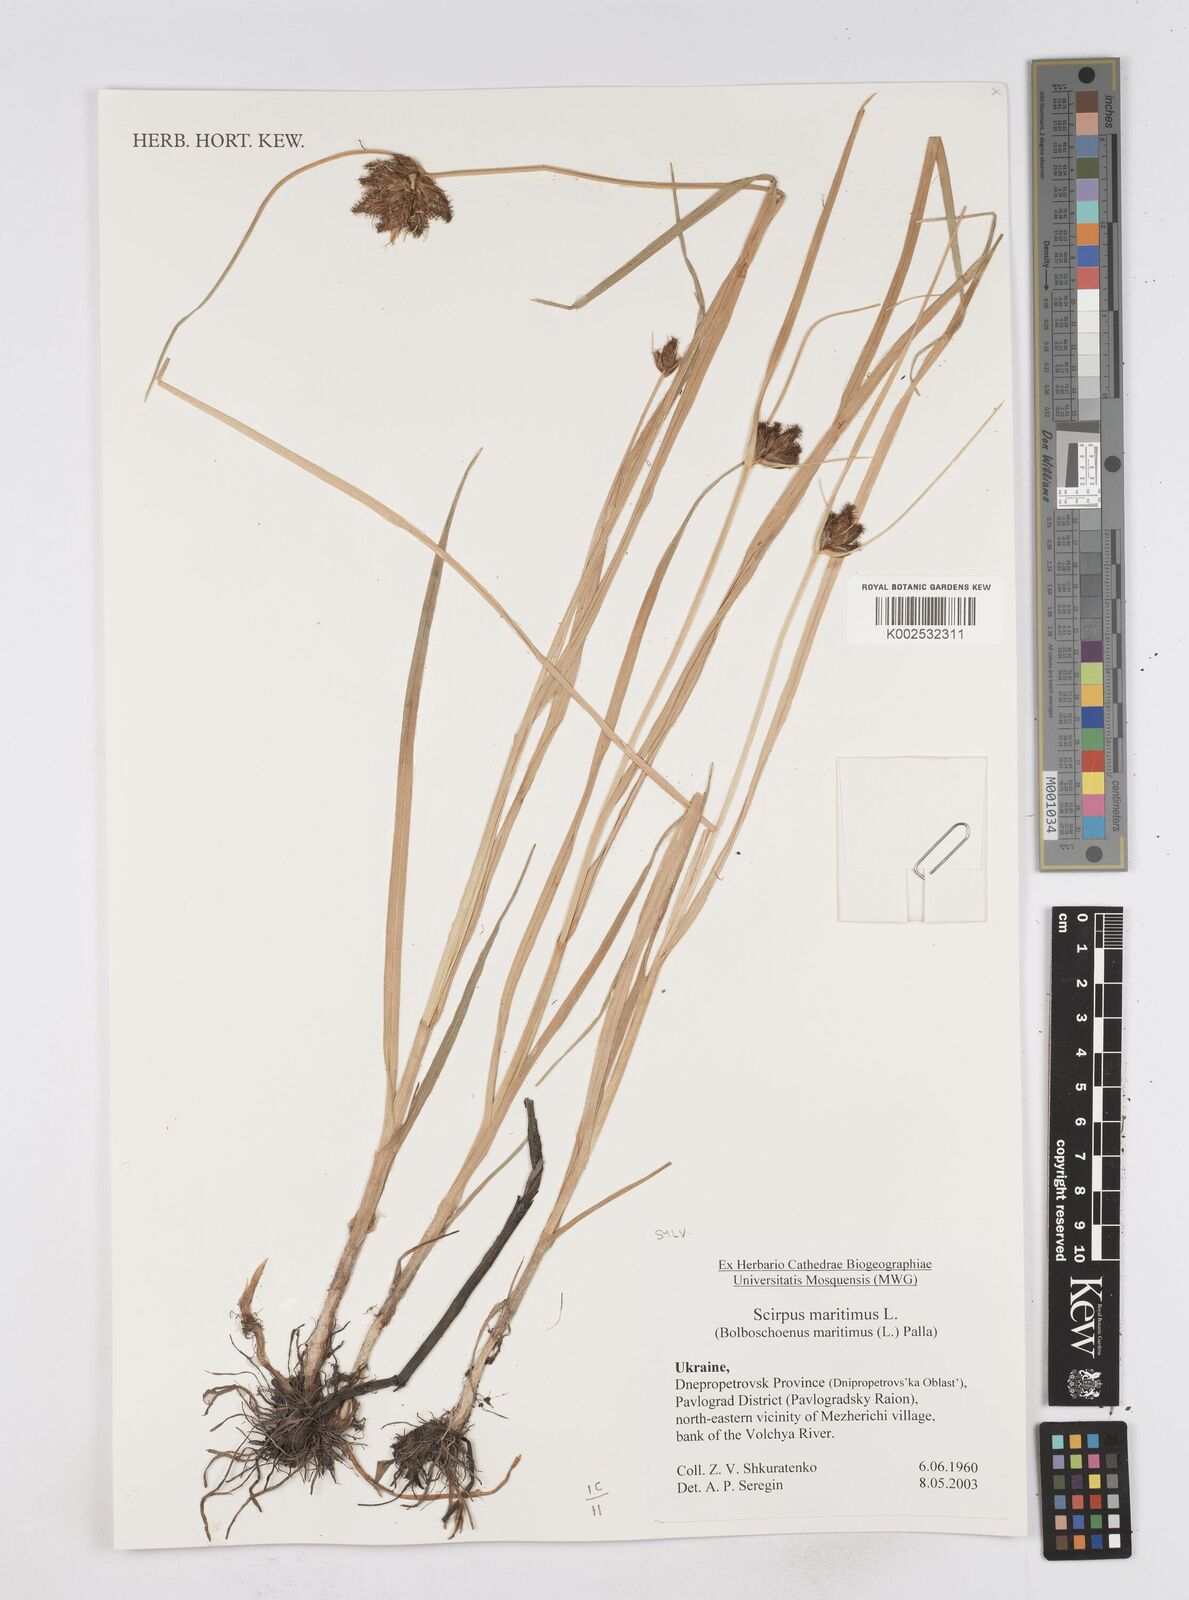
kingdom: Plantae
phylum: Tracheophyta
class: Liliopsida
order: Poales
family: Cyperaceae
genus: Bolboschoenus
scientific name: Bolboschoenus maritimus
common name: Sea club-rush
